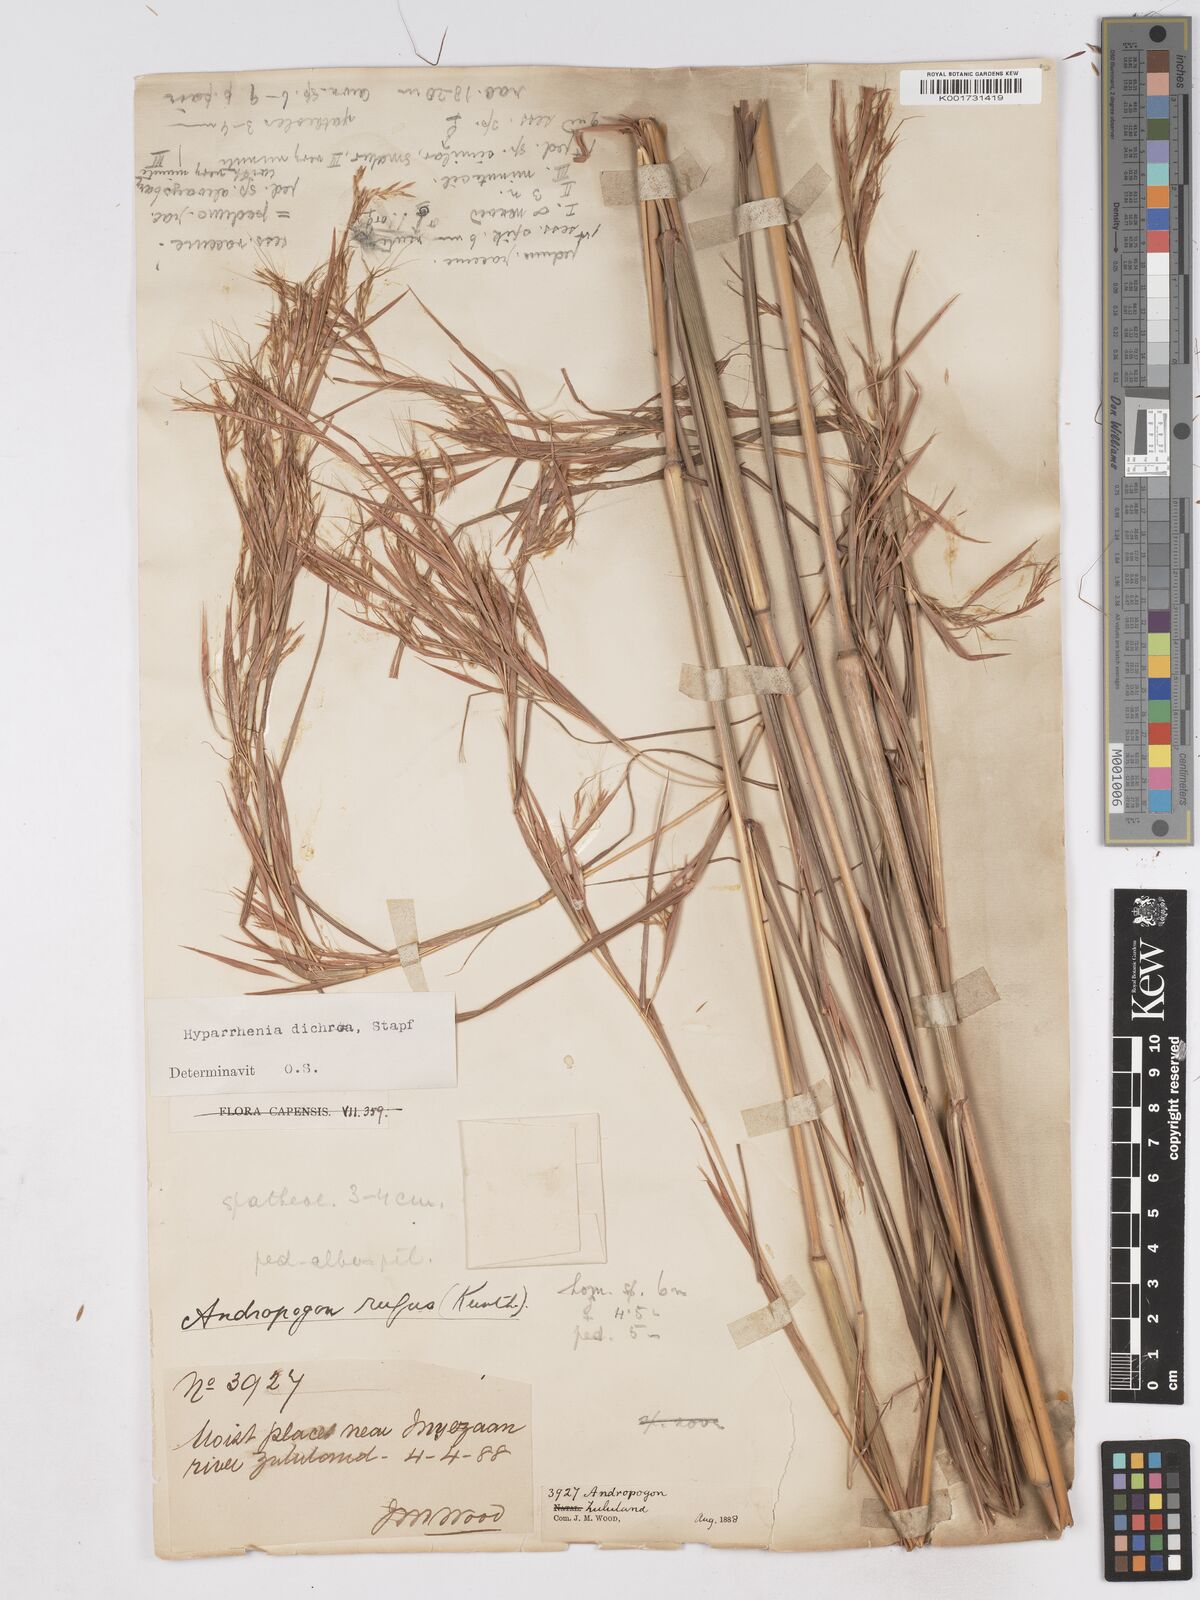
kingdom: Plantae
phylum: Tracheophyta
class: Liliopsida
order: Poales
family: Poaceae
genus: Hyparrhenia
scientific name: Hyparrhenia dichroa
